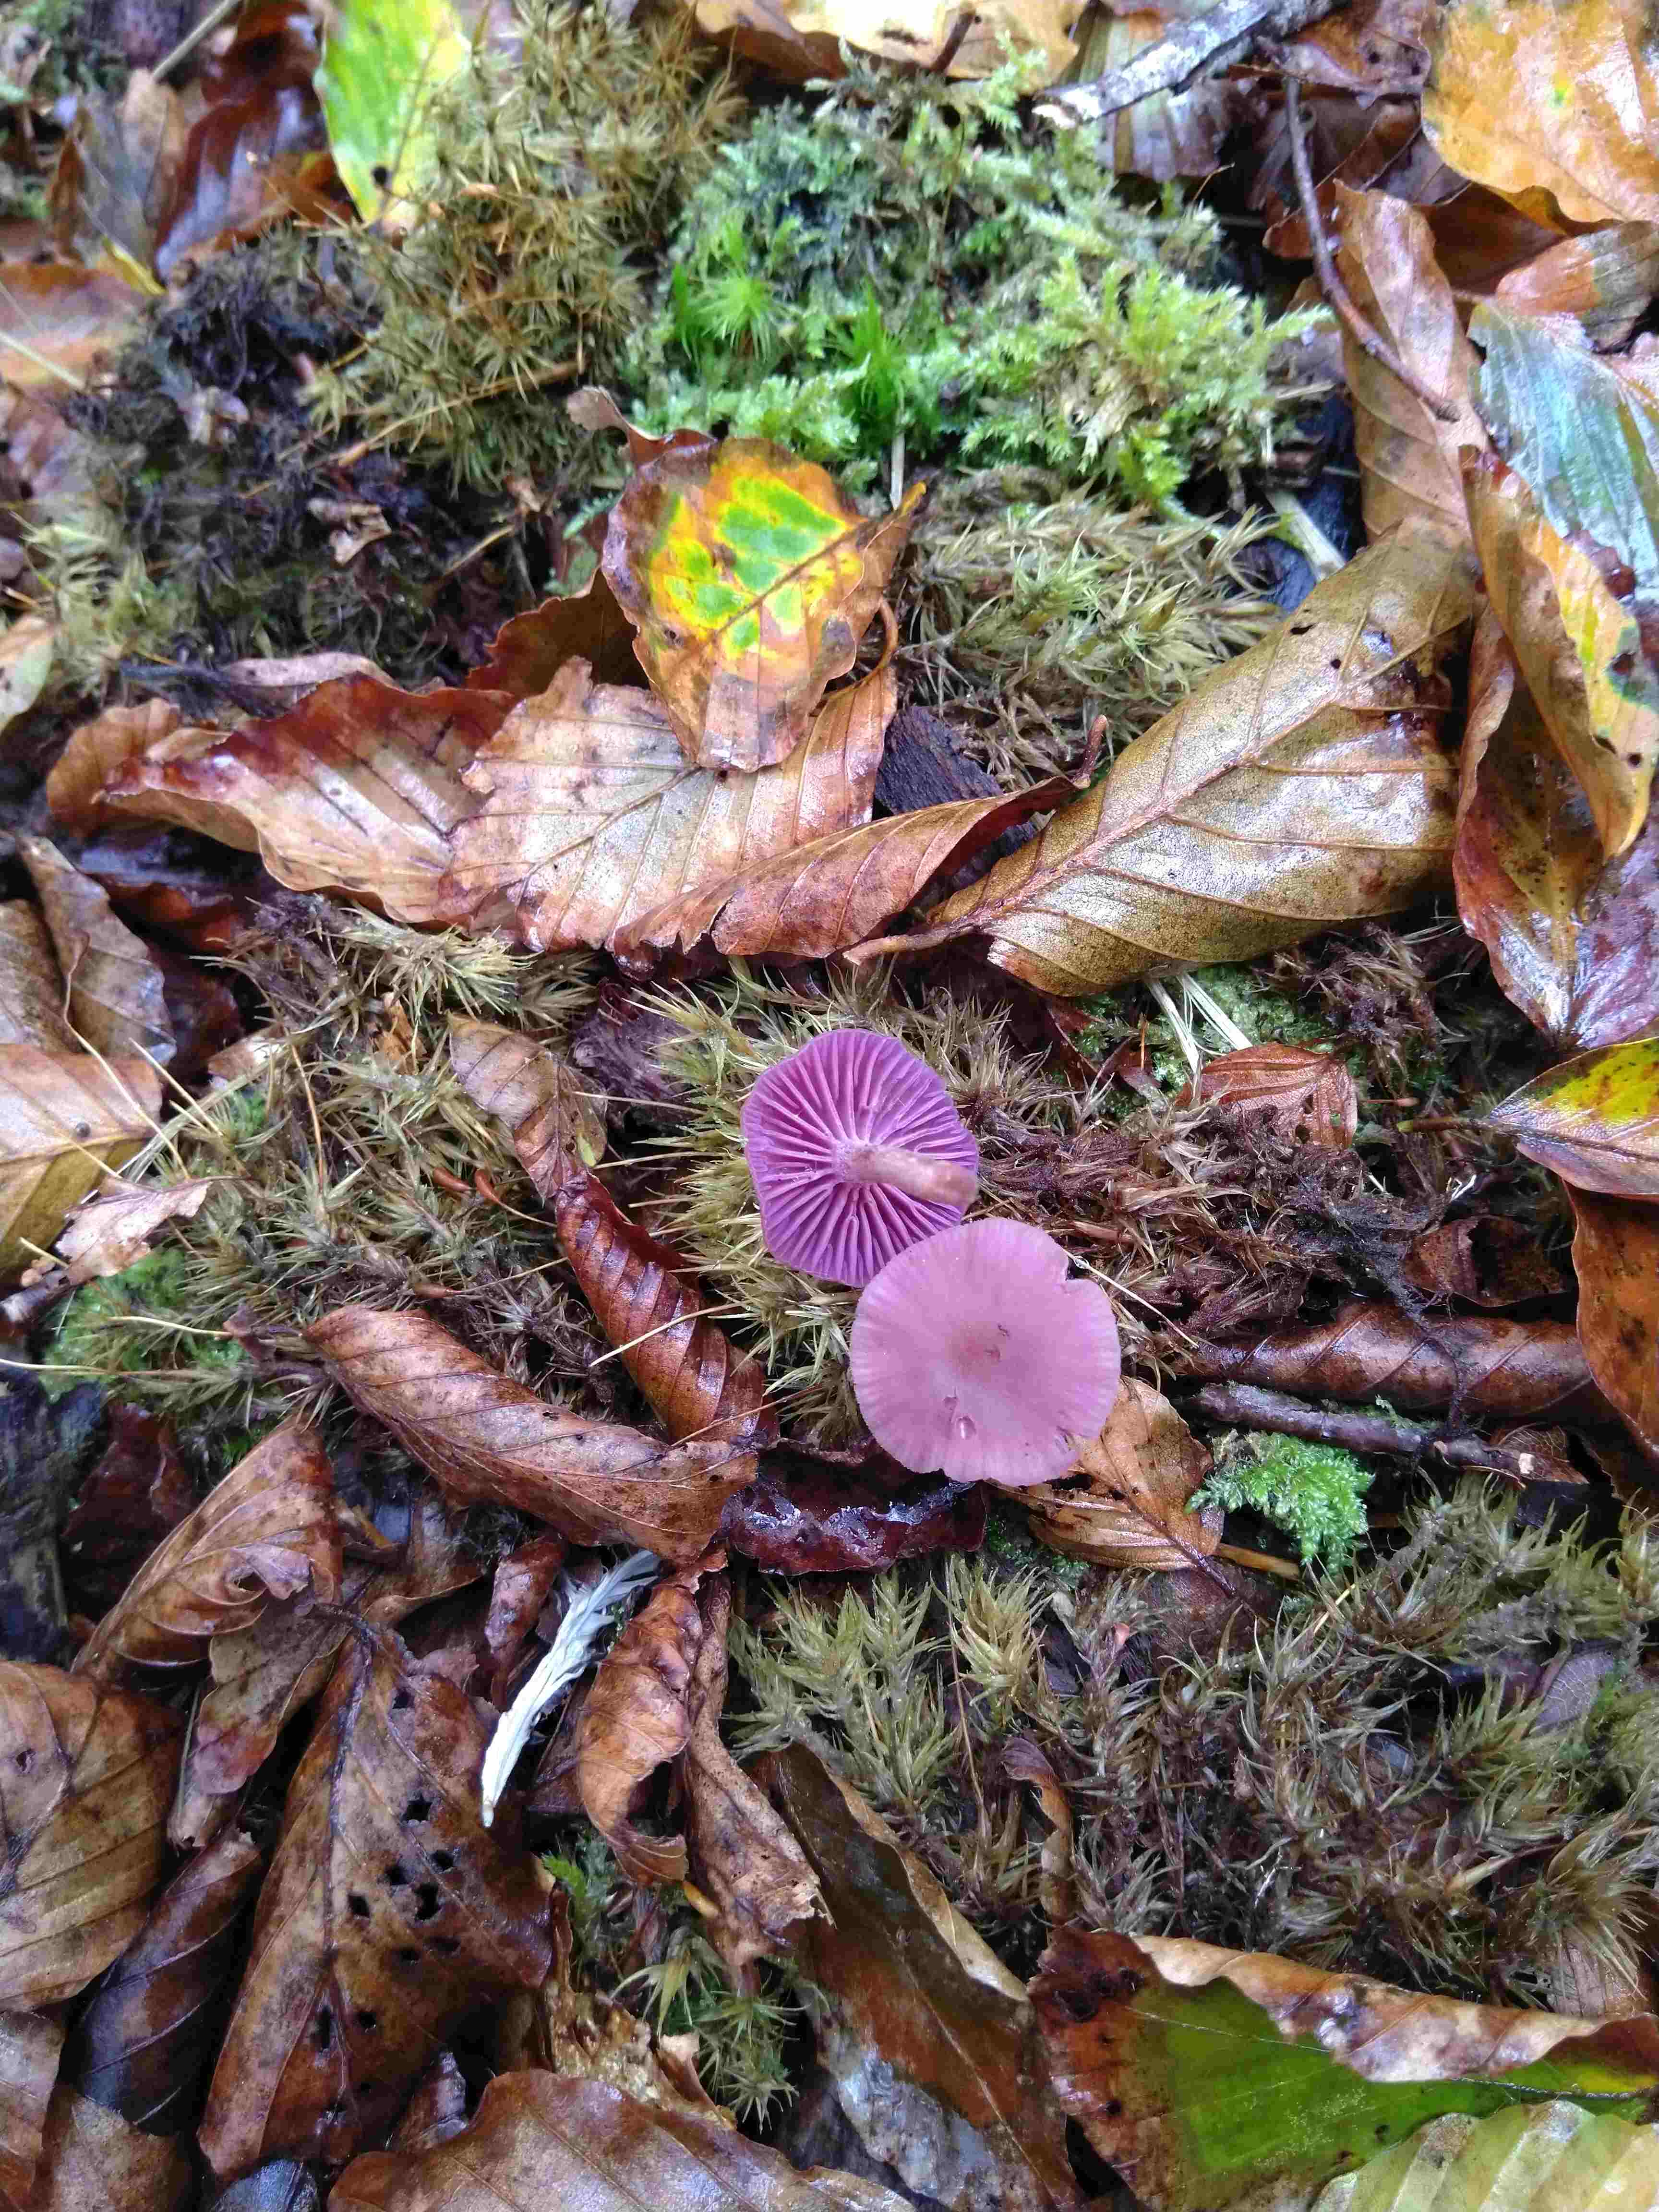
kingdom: Fungi
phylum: Basidiomycota
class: Agaricomycetes
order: Agaricales
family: Hydnangiaceae
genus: Laccaria
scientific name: Laccaria amethystina
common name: violet ametysthat
